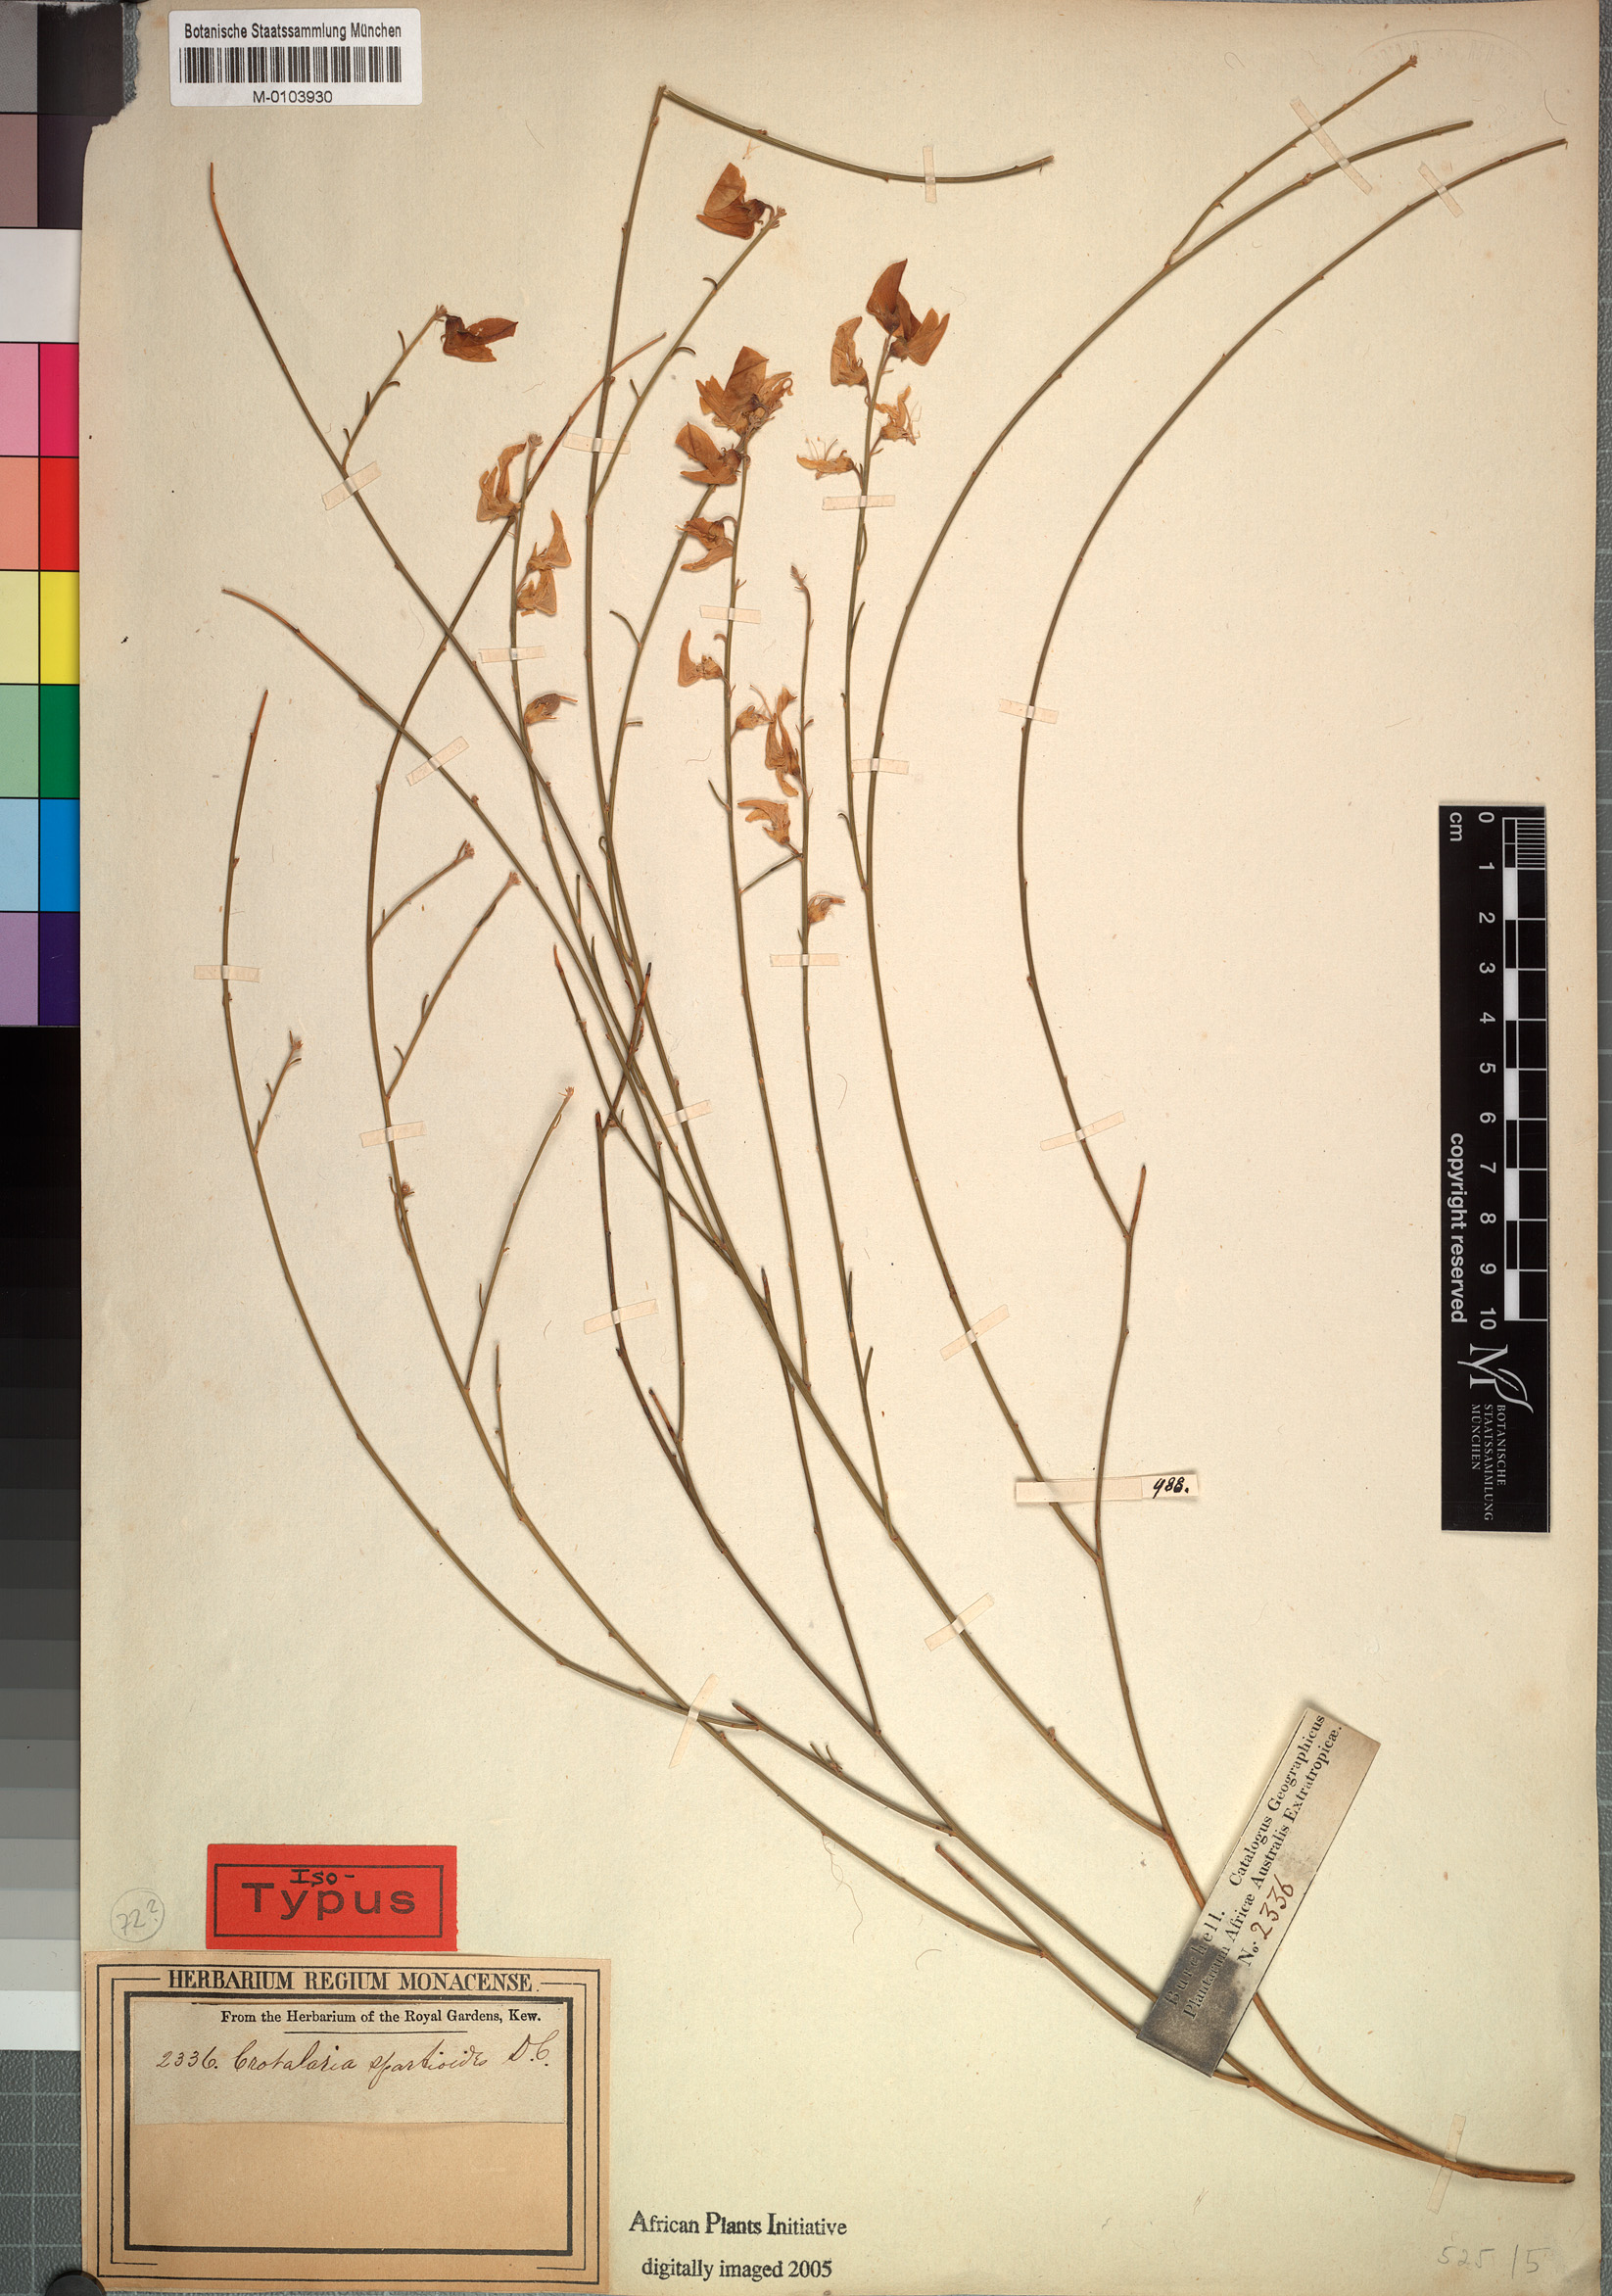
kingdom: Plantae
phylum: Tracheophyta
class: Magnoliopsida
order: Fabales
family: Fabaceae
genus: Crotalaria
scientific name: Crotalaria spartioides
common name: Dunebush
